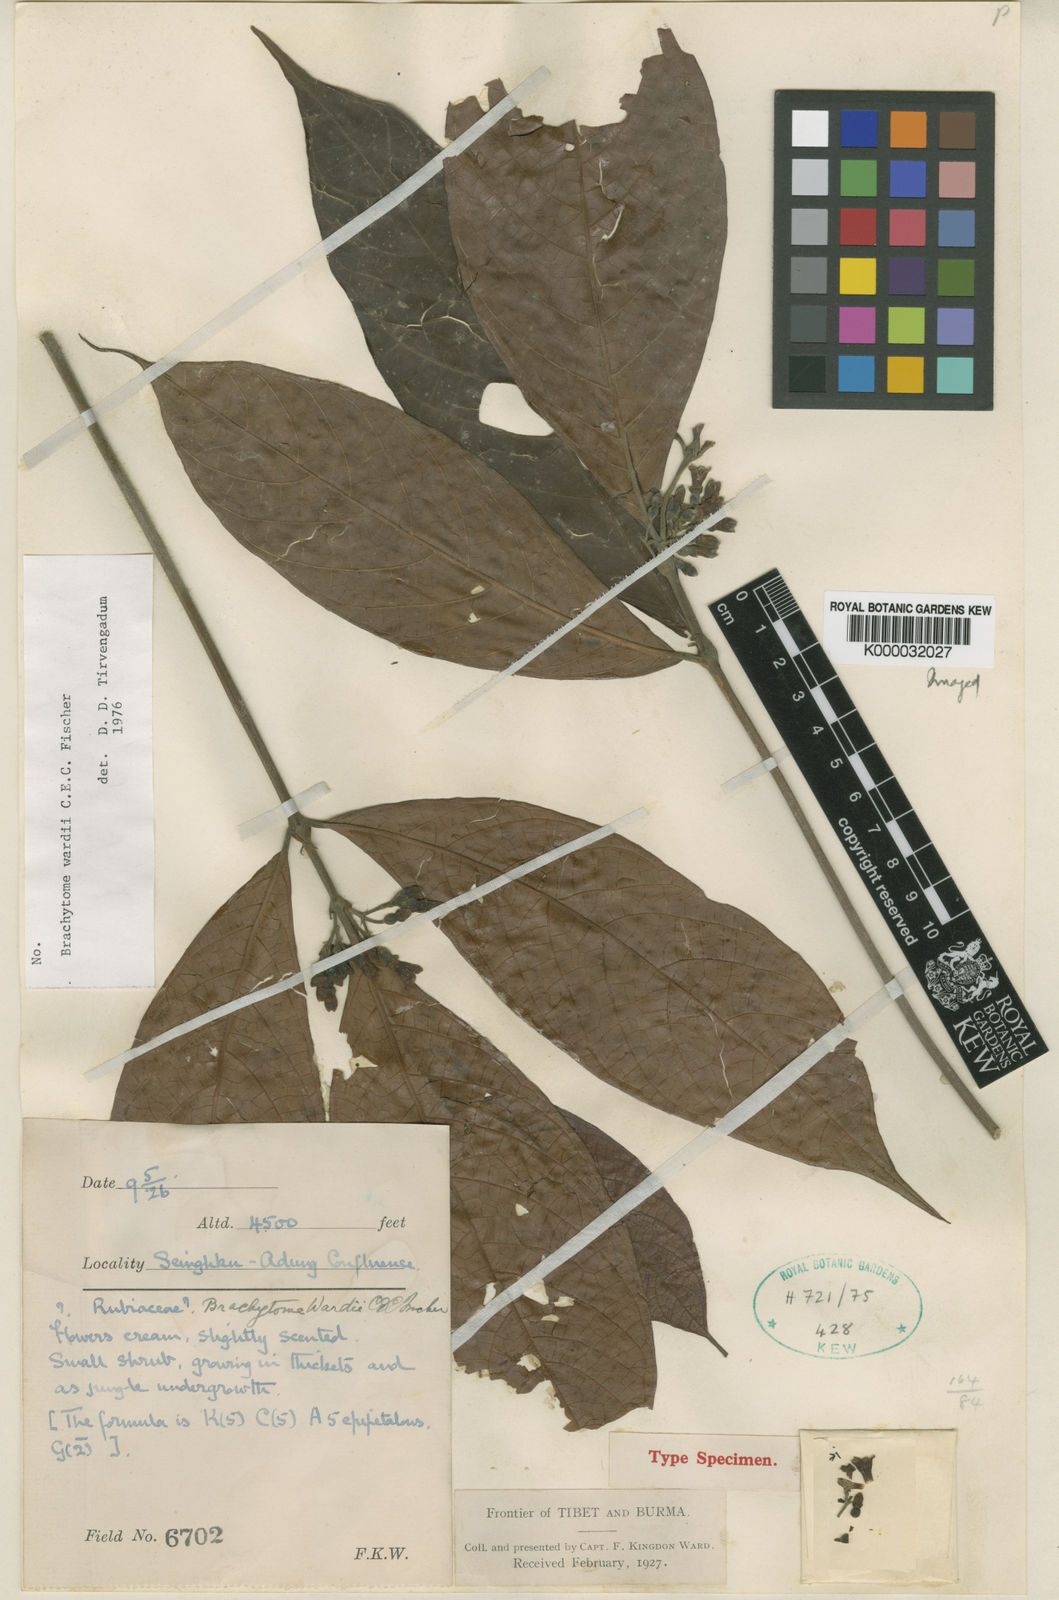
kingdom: Plantae
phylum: Tracheophyta
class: Magnoliopsida
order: Gentianales
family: Rubiaceae
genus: Brachytome
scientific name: Brachytome wardii
